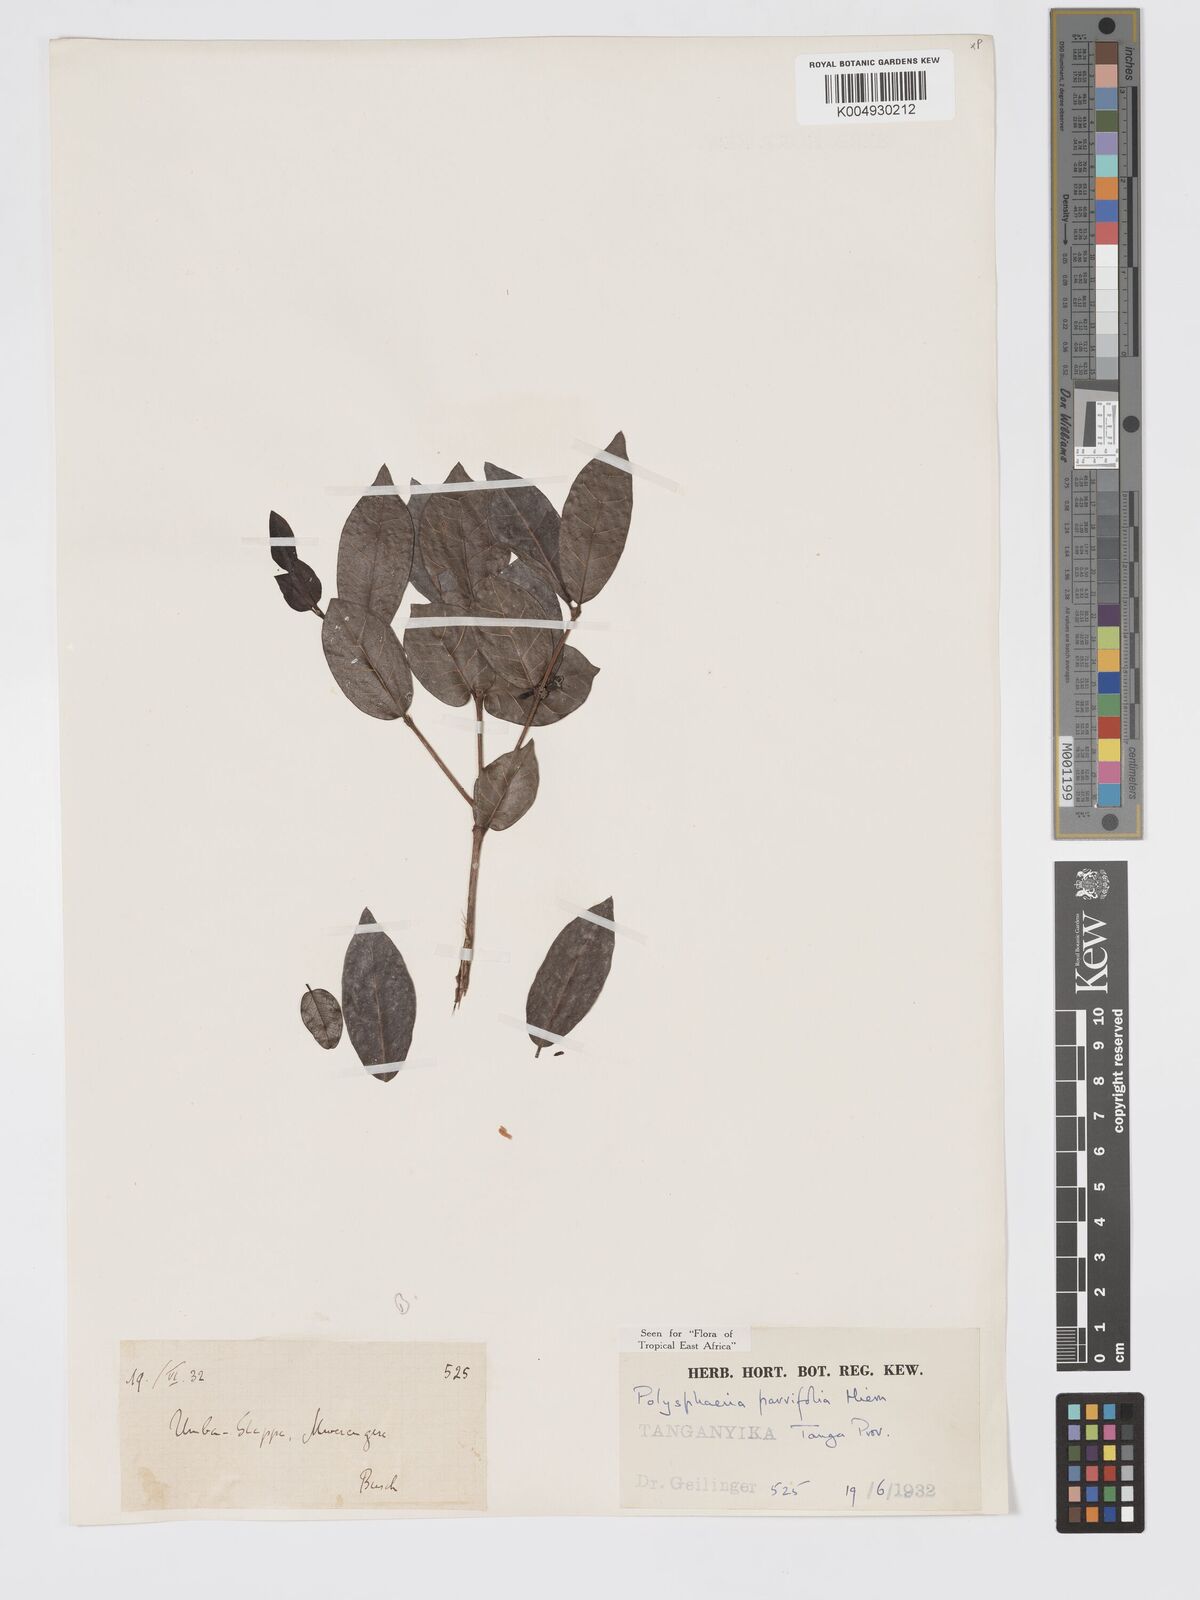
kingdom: Plantae
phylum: Tracheophyta
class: Magnoliopsida
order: Gentianales
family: Rubiaceae
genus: Polysphaeria
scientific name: Polysphaeria parvifolia
